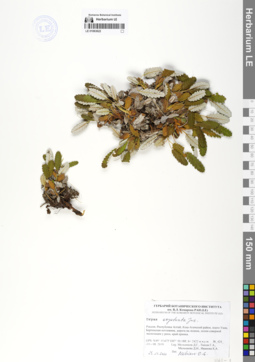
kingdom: Plantae
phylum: Tracheophyta
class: Magnoliopsida
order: Rosales
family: Rosaceae
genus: Dryas
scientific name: Dryas octopetala
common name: Eight-petal mountain-avens
